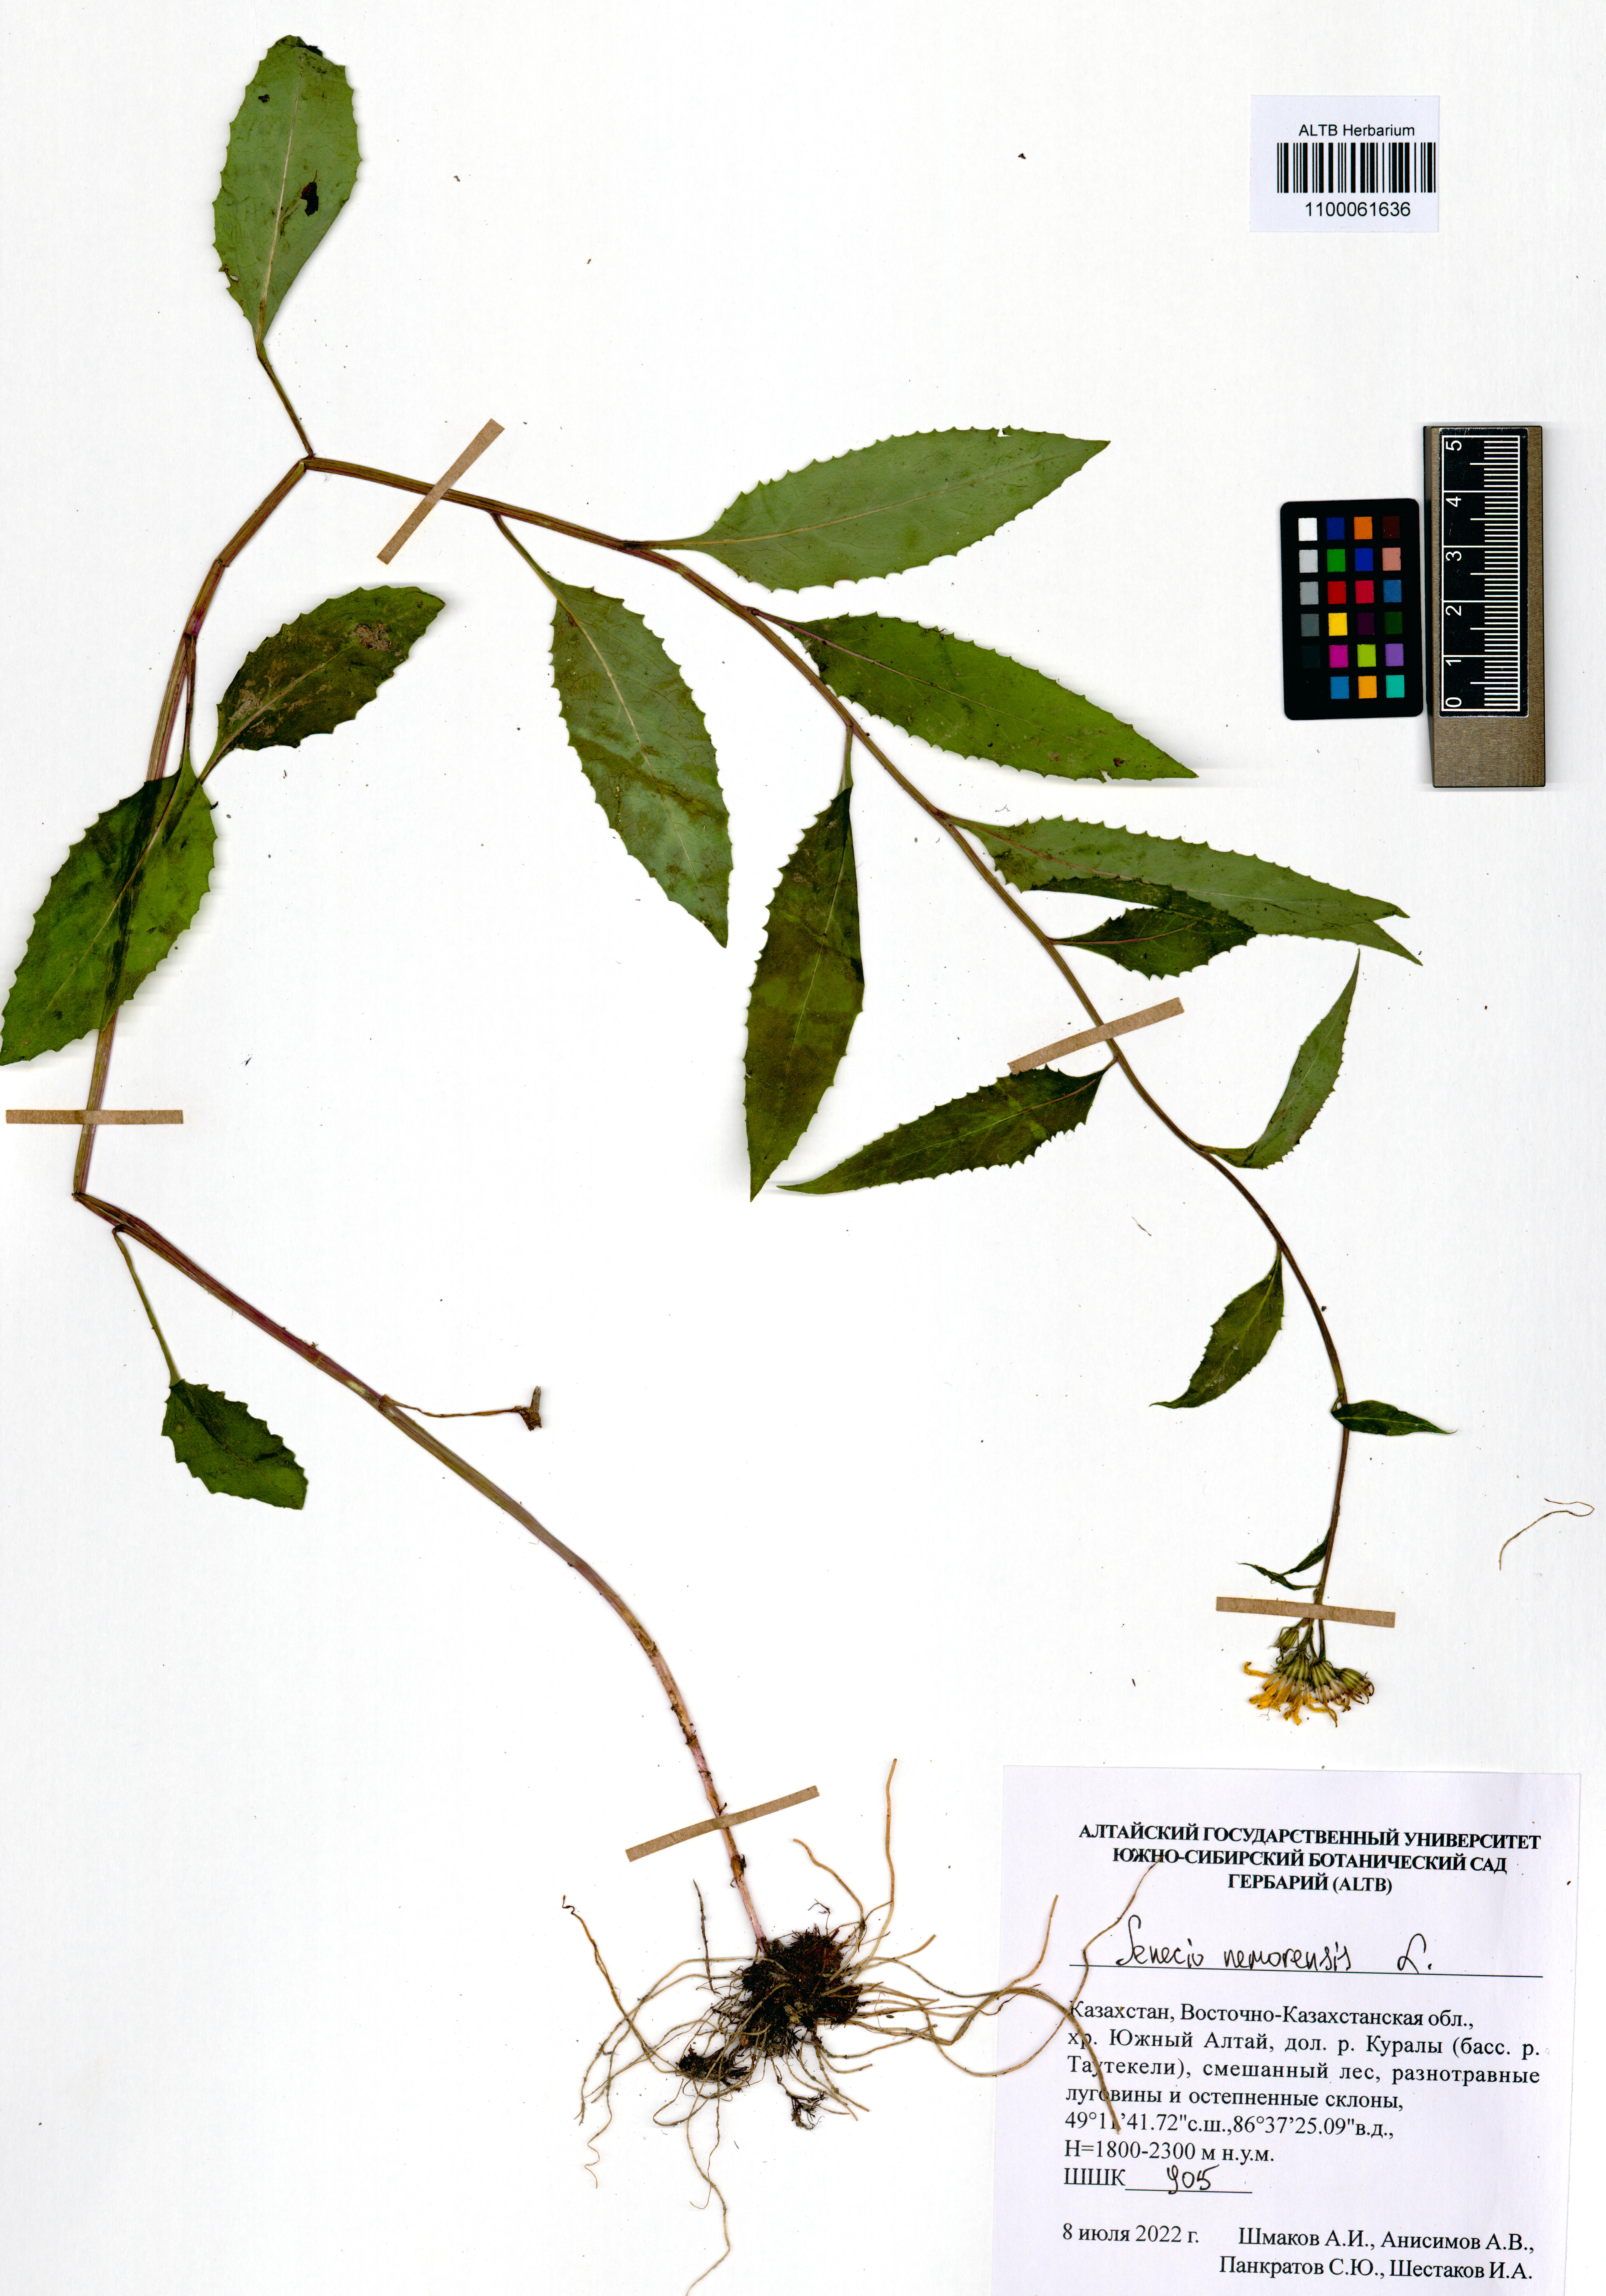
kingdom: Plantae
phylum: Tracheophyta
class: Magnoliopsida
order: Asterales
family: Asteraceae
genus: Senecio
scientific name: Senecio nemorensis
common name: Alpine ragwort
